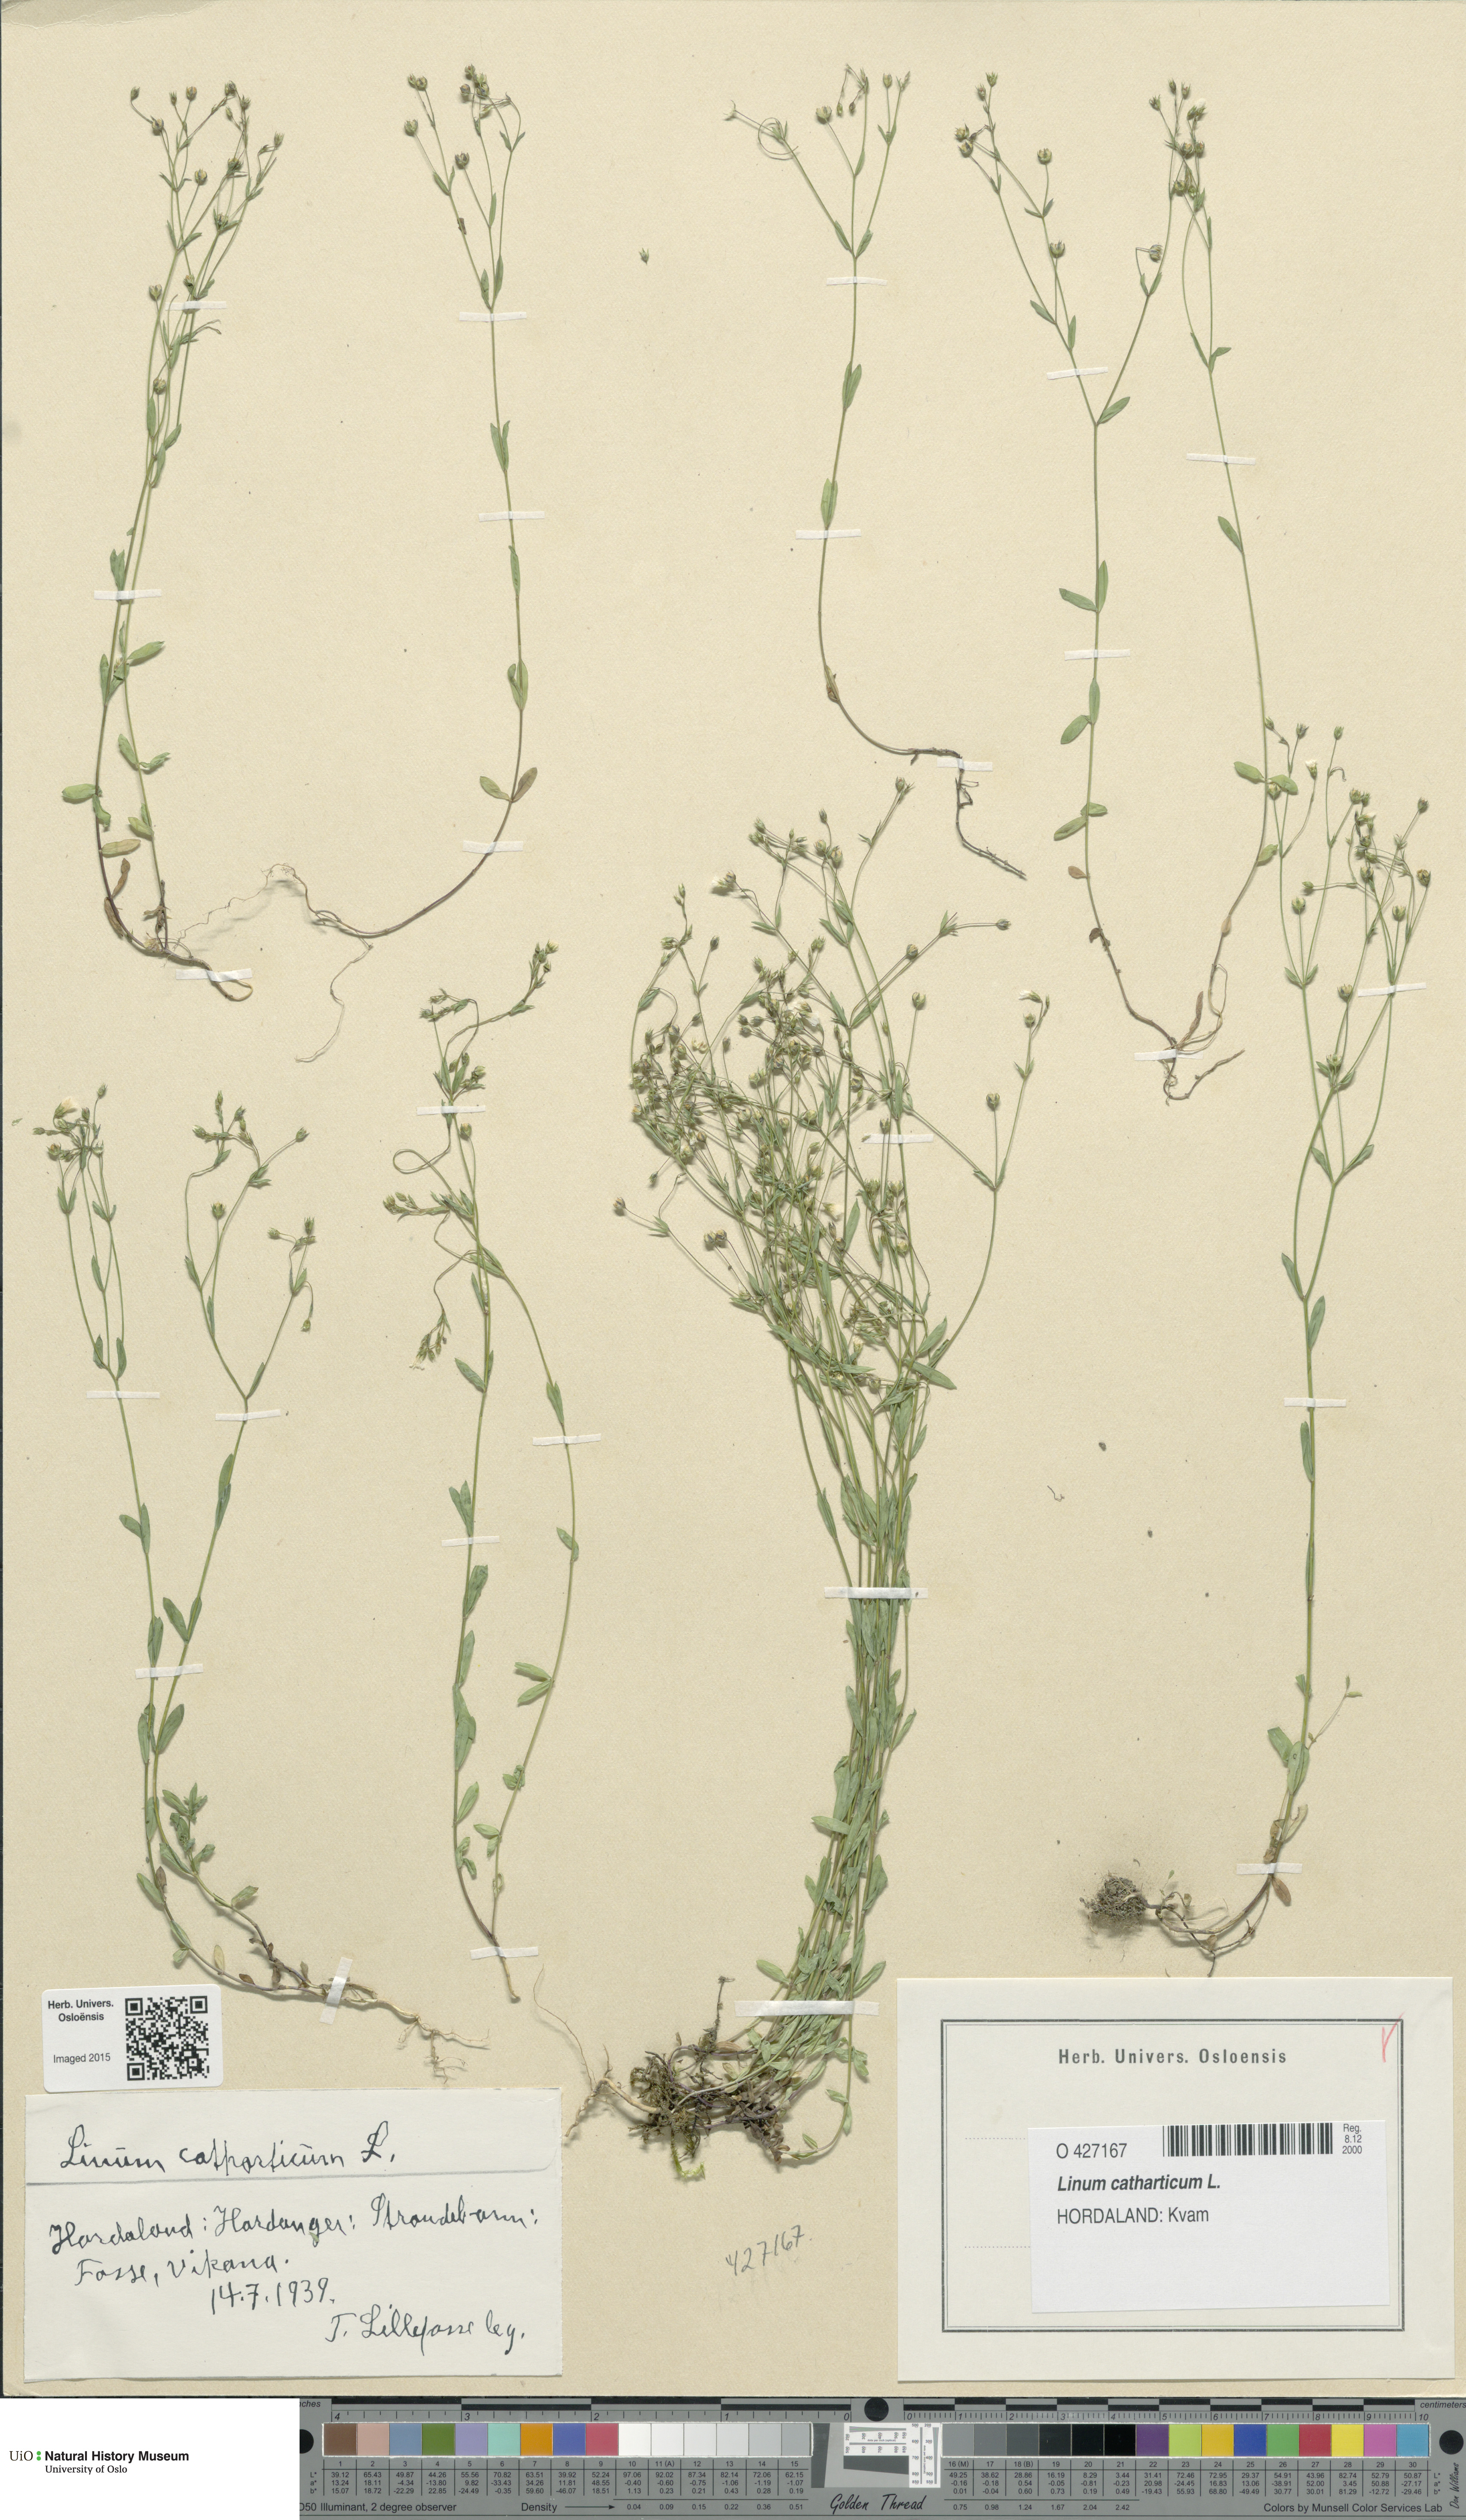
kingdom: Plantae
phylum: Tracheophyta
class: Magnoliopsida
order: Malpighiales
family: Linaceae
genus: Linum
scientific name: Linum catharticum
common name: Fairy flax
